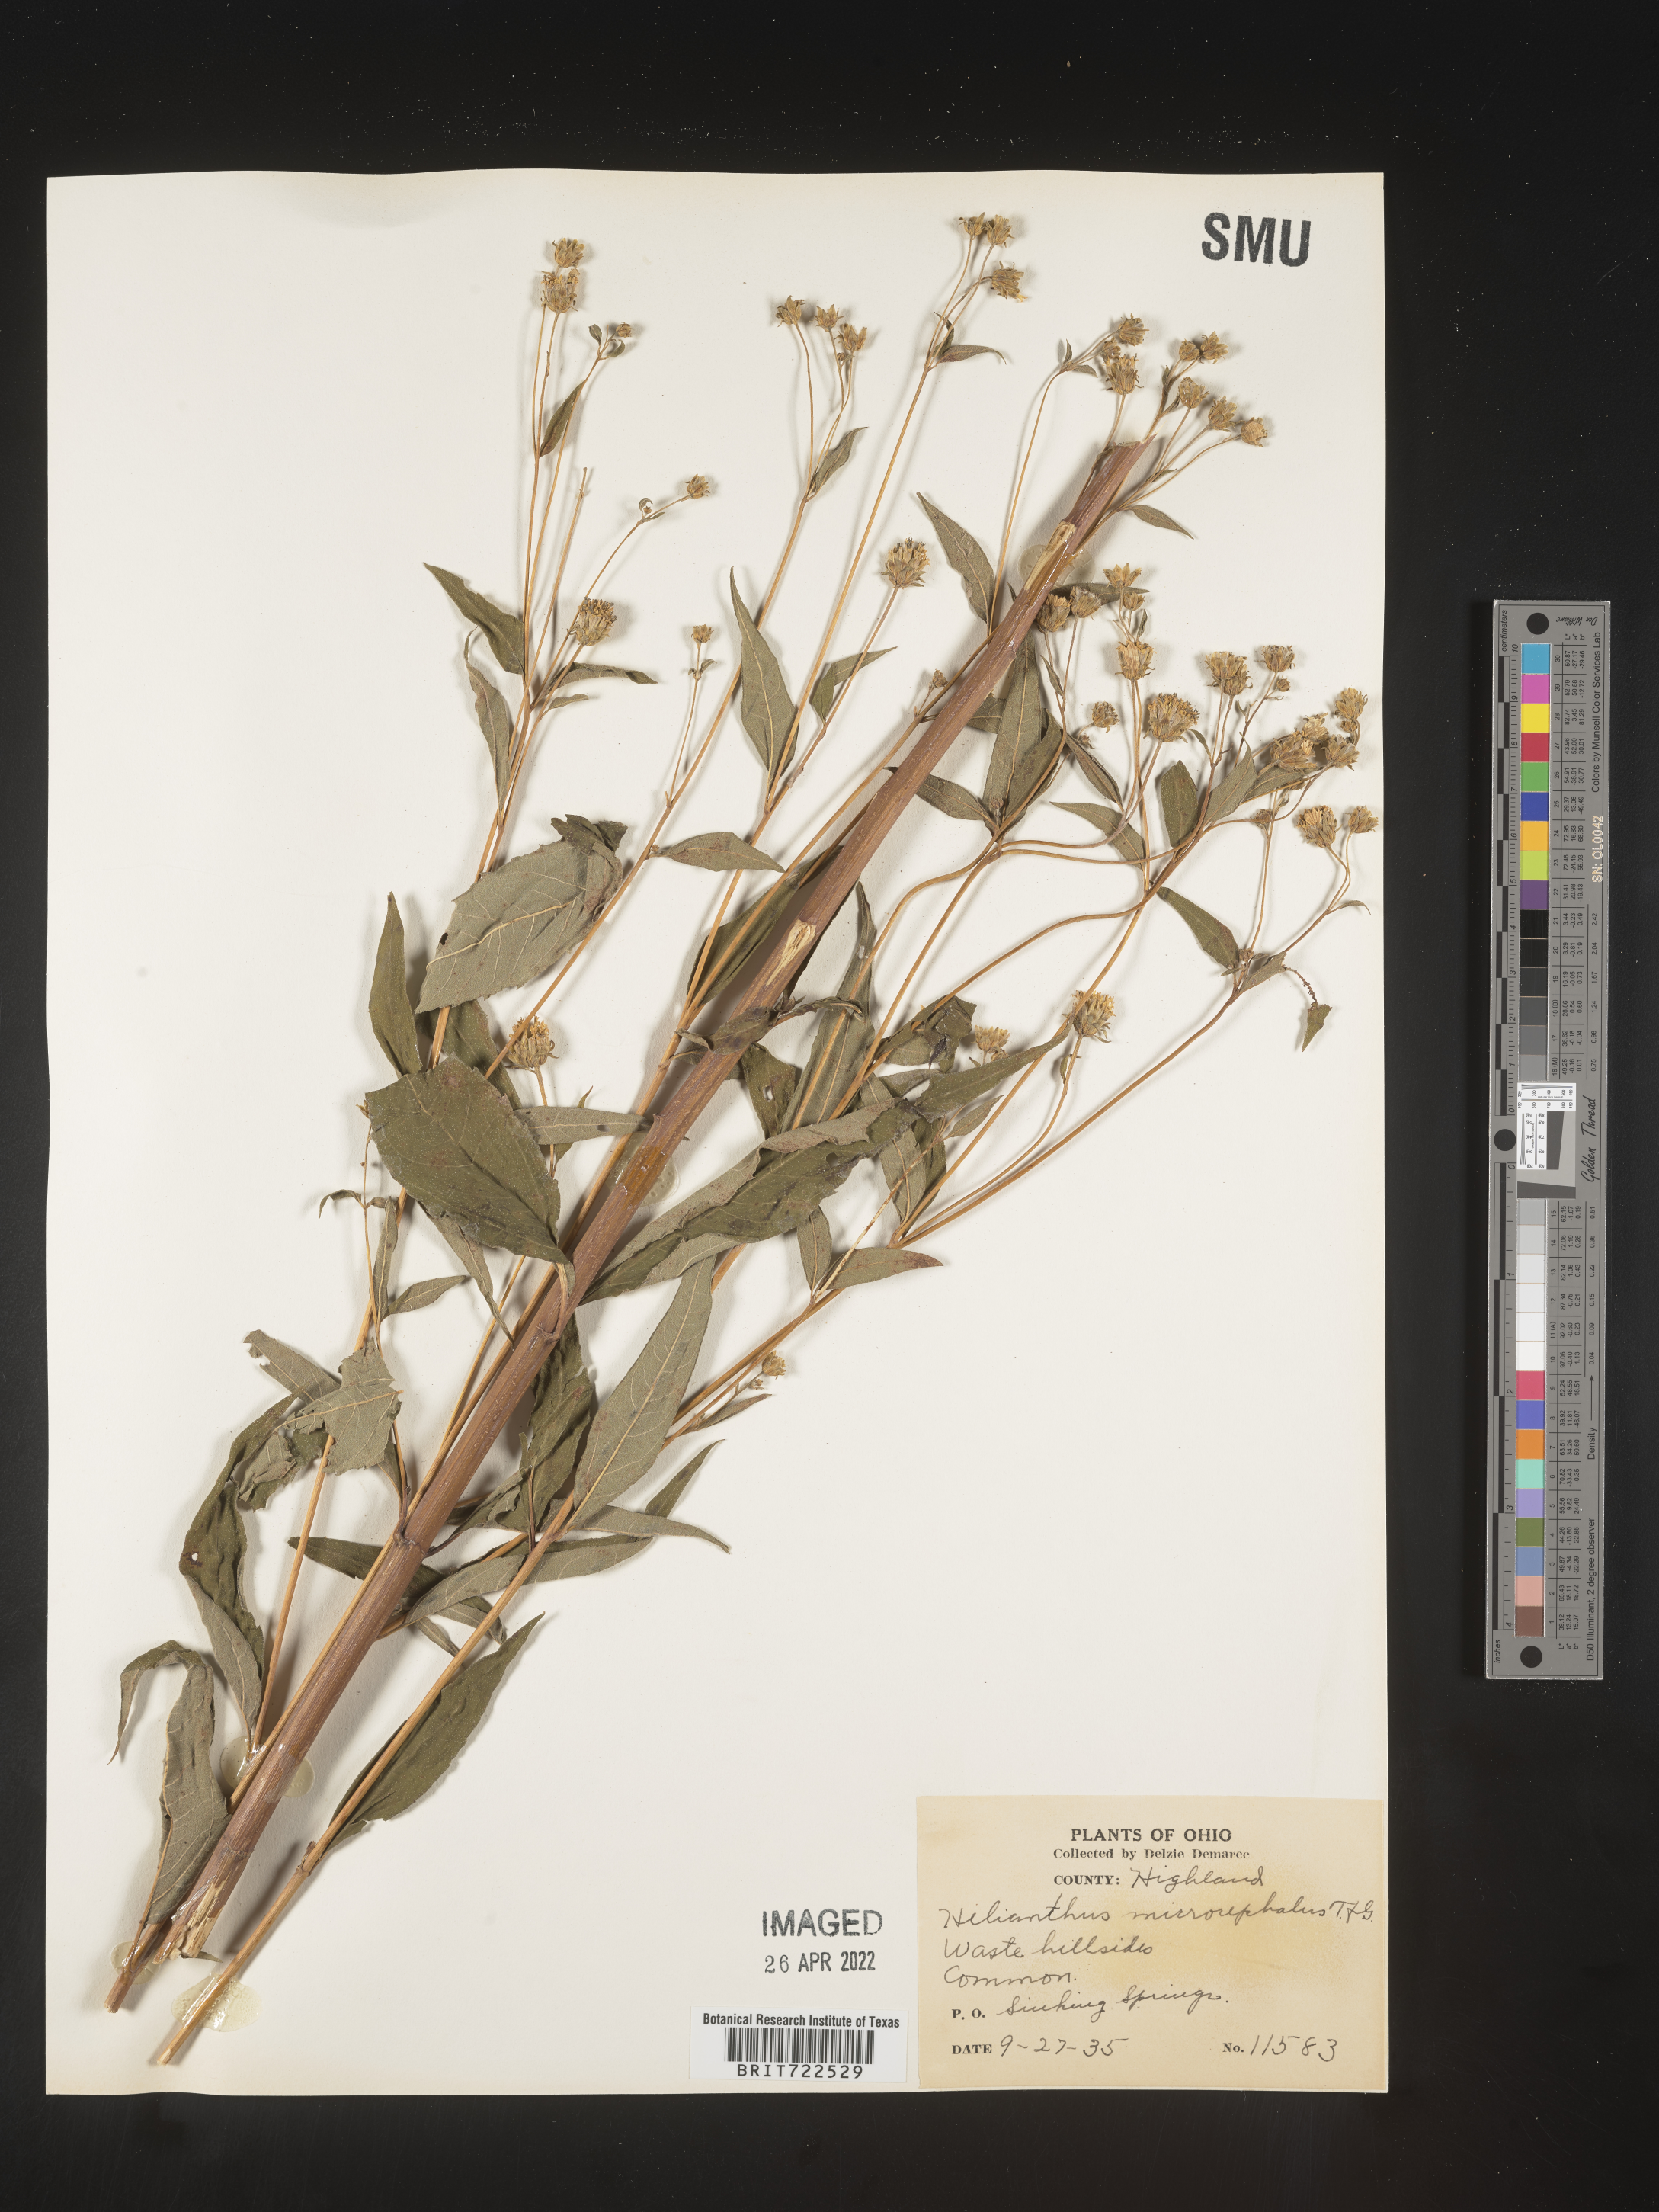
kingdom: Plantae
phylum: Tracheophyta
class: Magnoliopsida
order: Asterales
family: Asteraceae
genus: Helianthus
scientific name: Helianthus microcephalus
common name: Woodland sunflower
